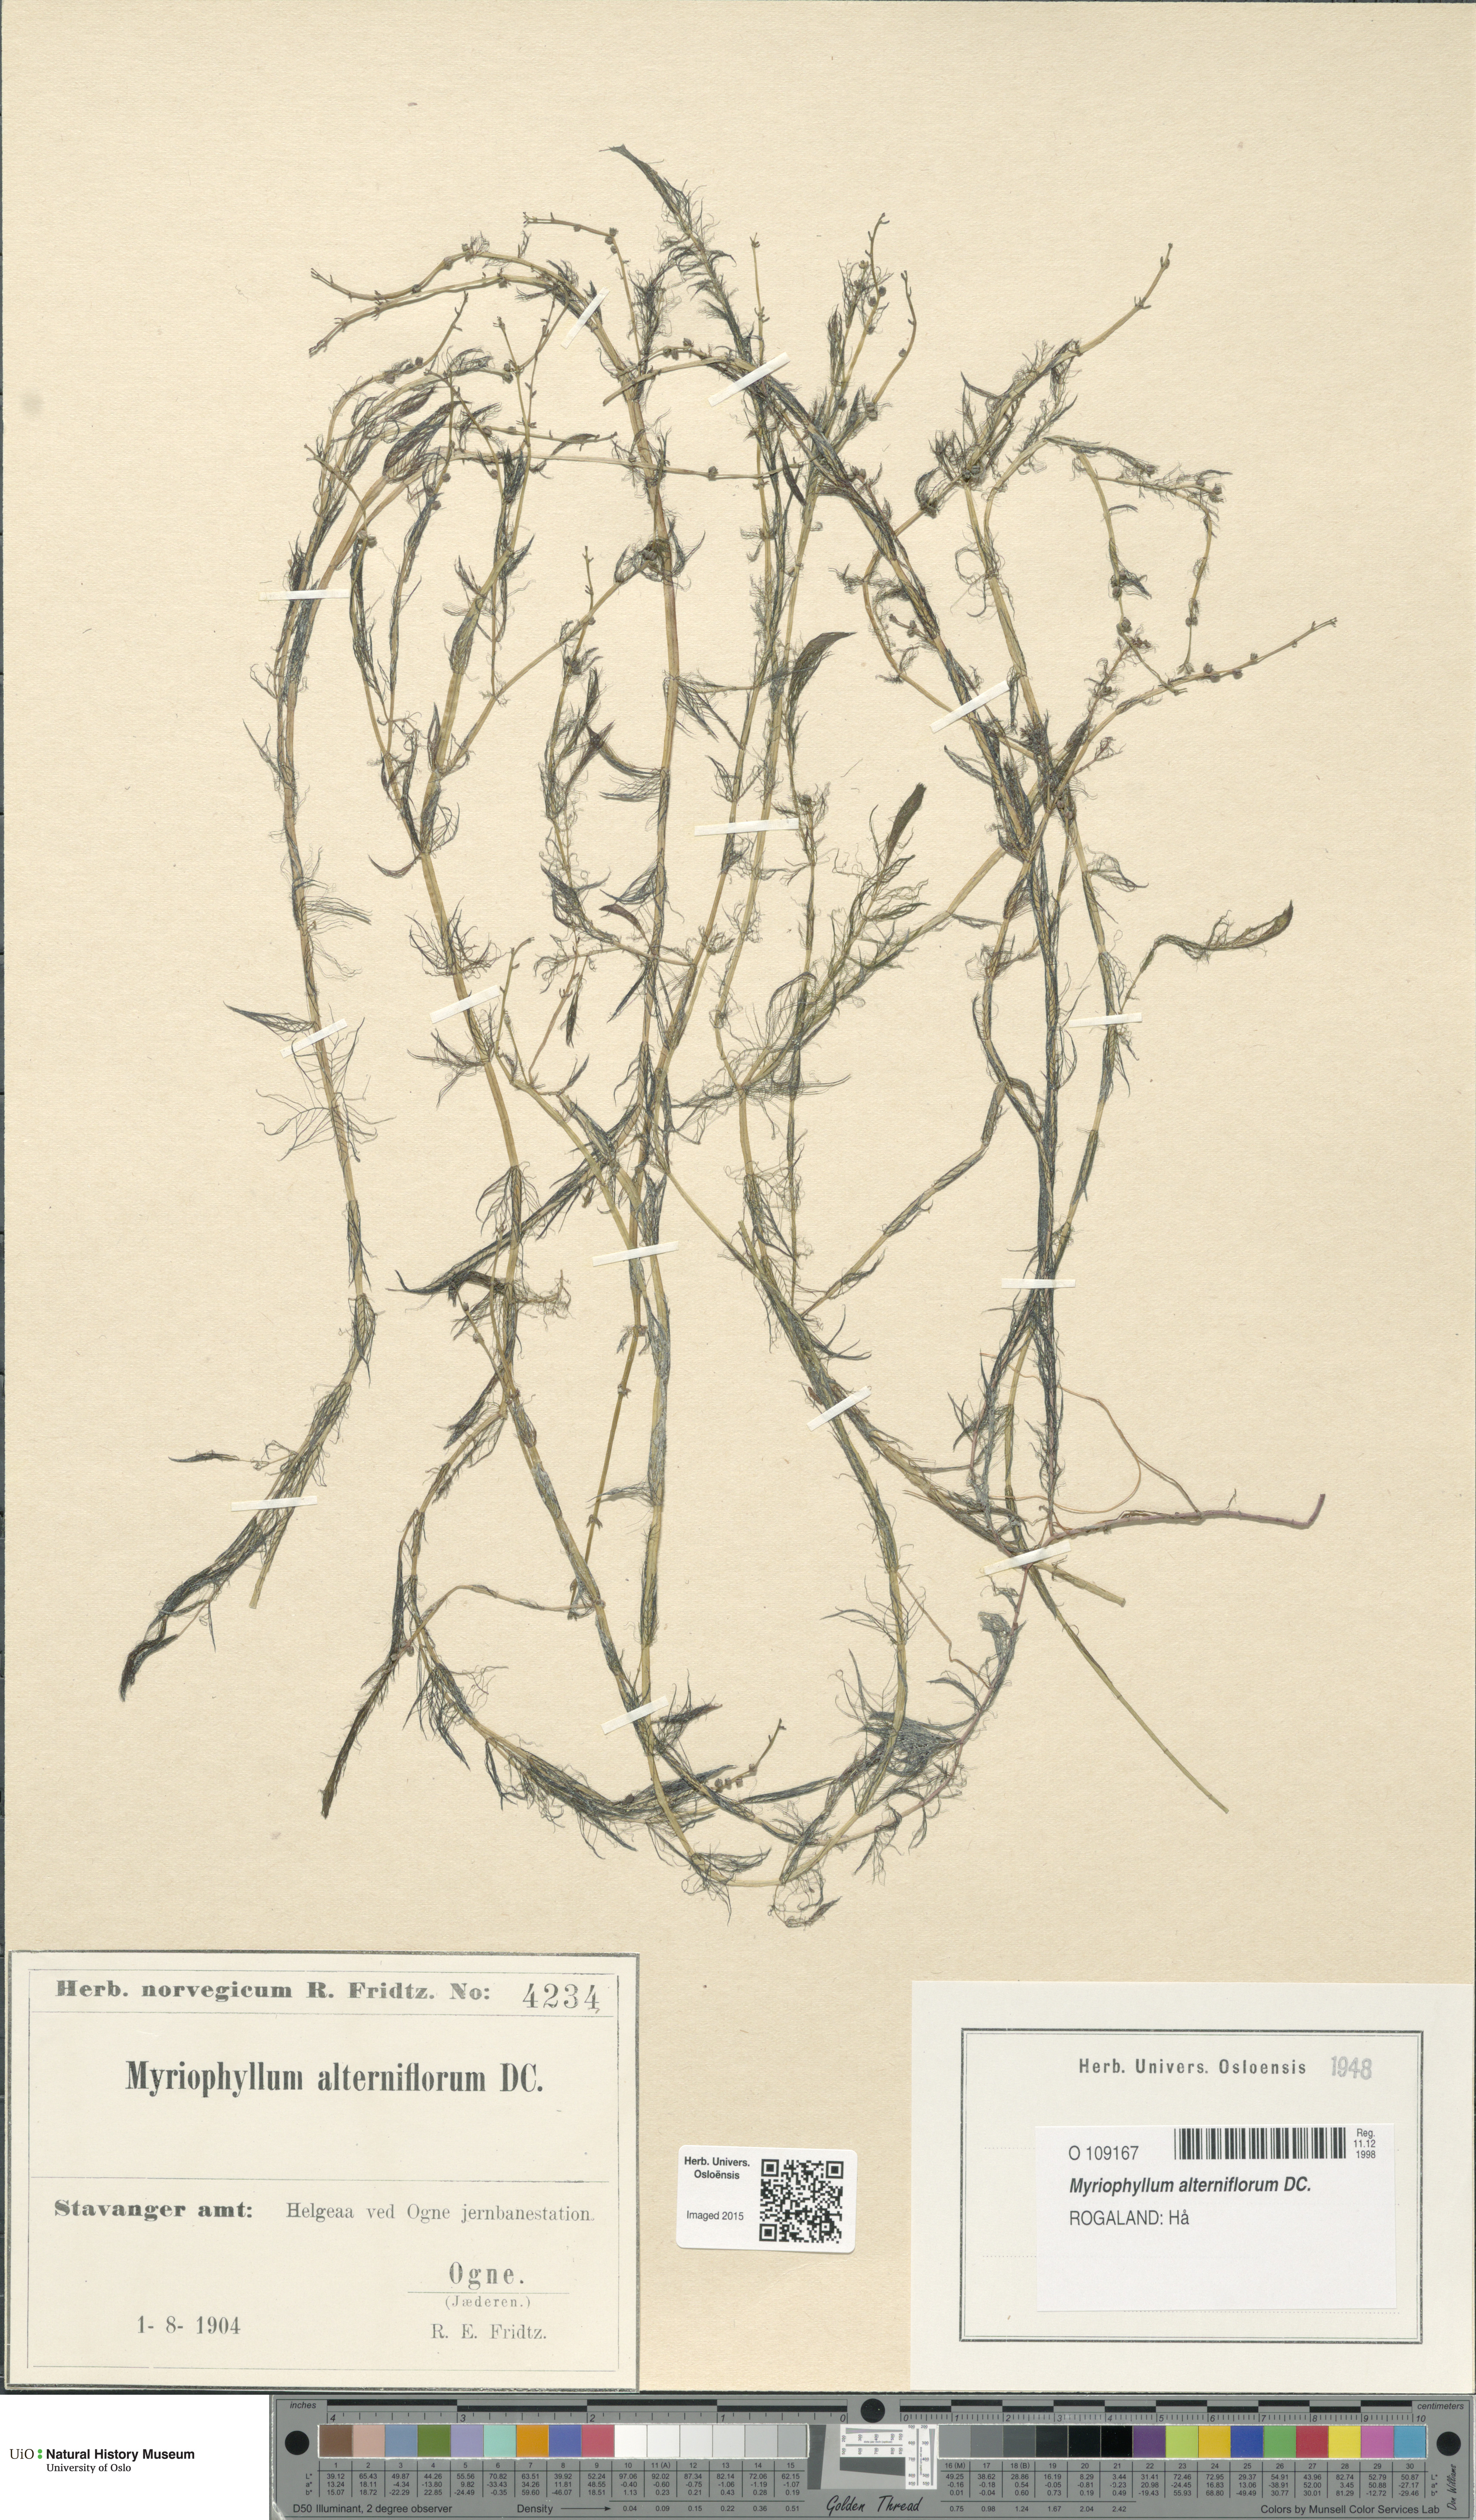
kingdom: Plantae
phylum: Tracheophyta
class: Magnoliopsida
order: Saxifragales
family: Haloragaceae
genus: Myriophyllum
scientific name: Myriophyllum alterniflorum
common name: Alternate water-milfoil
